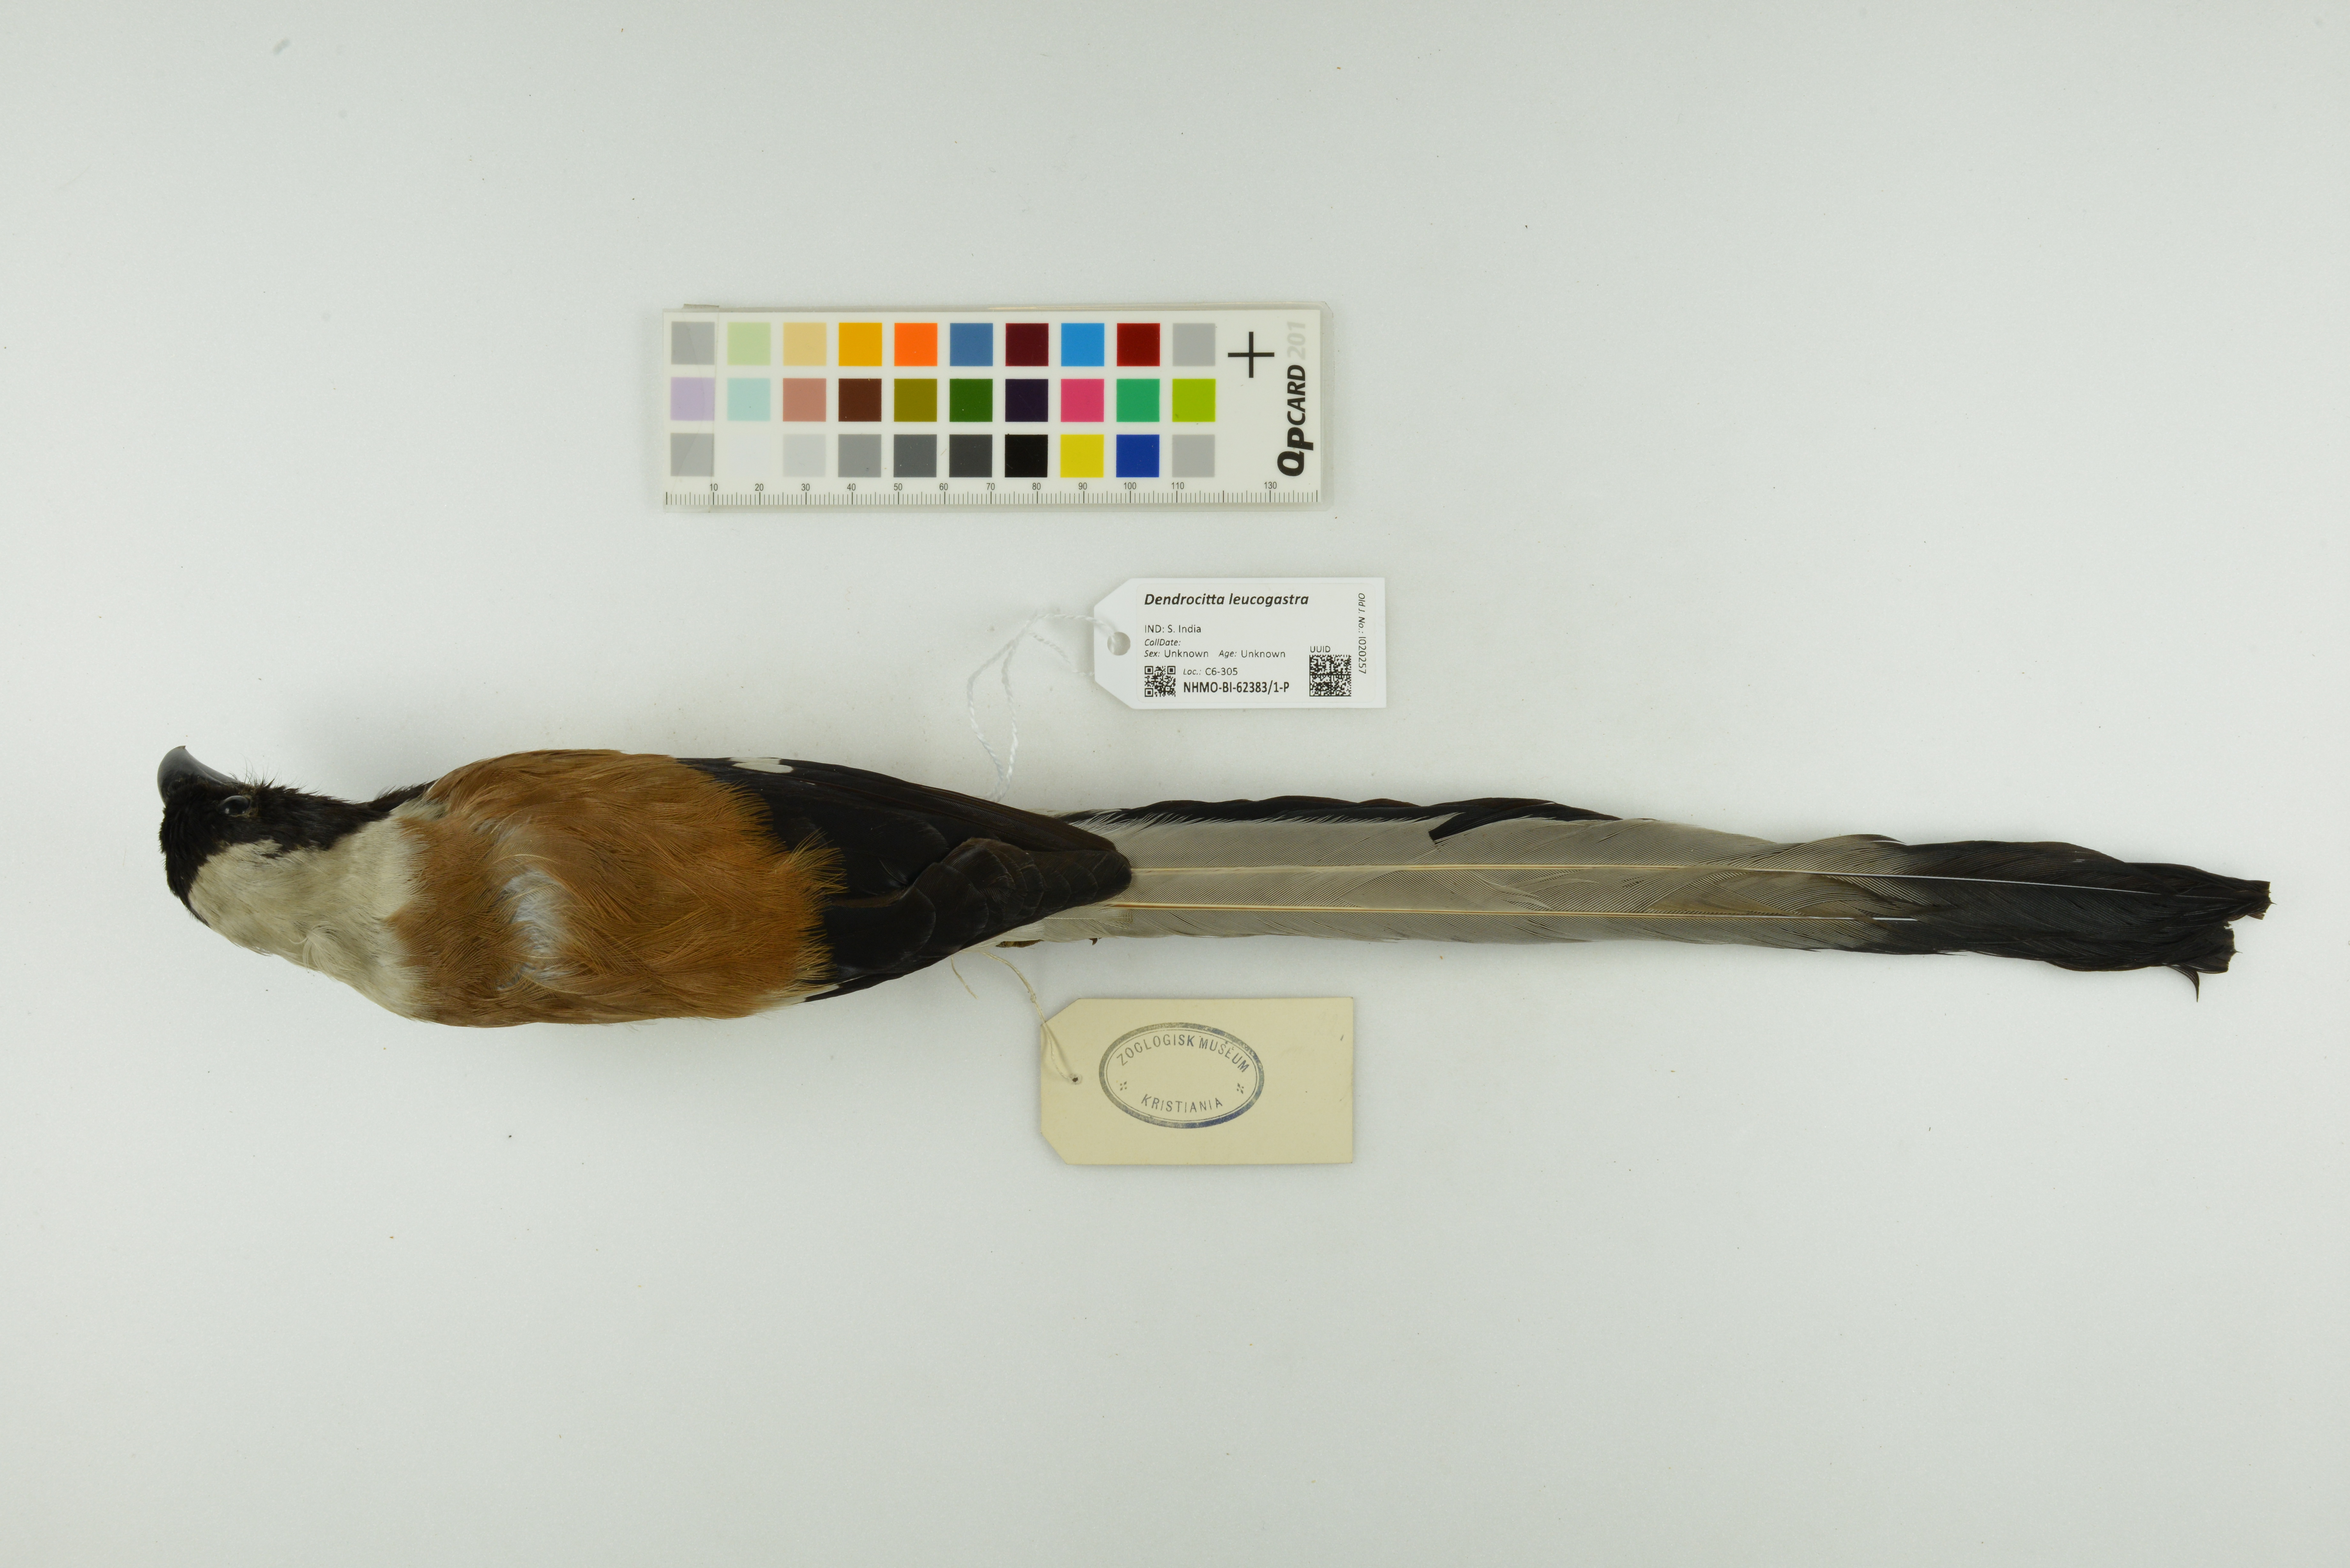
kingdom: Animalia
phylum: Chordata
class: Aves
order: Passeriformes
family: Corvidae
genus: Dendrocitta
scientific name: Dendrocitta leucogastra
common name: White-bellied treepie
